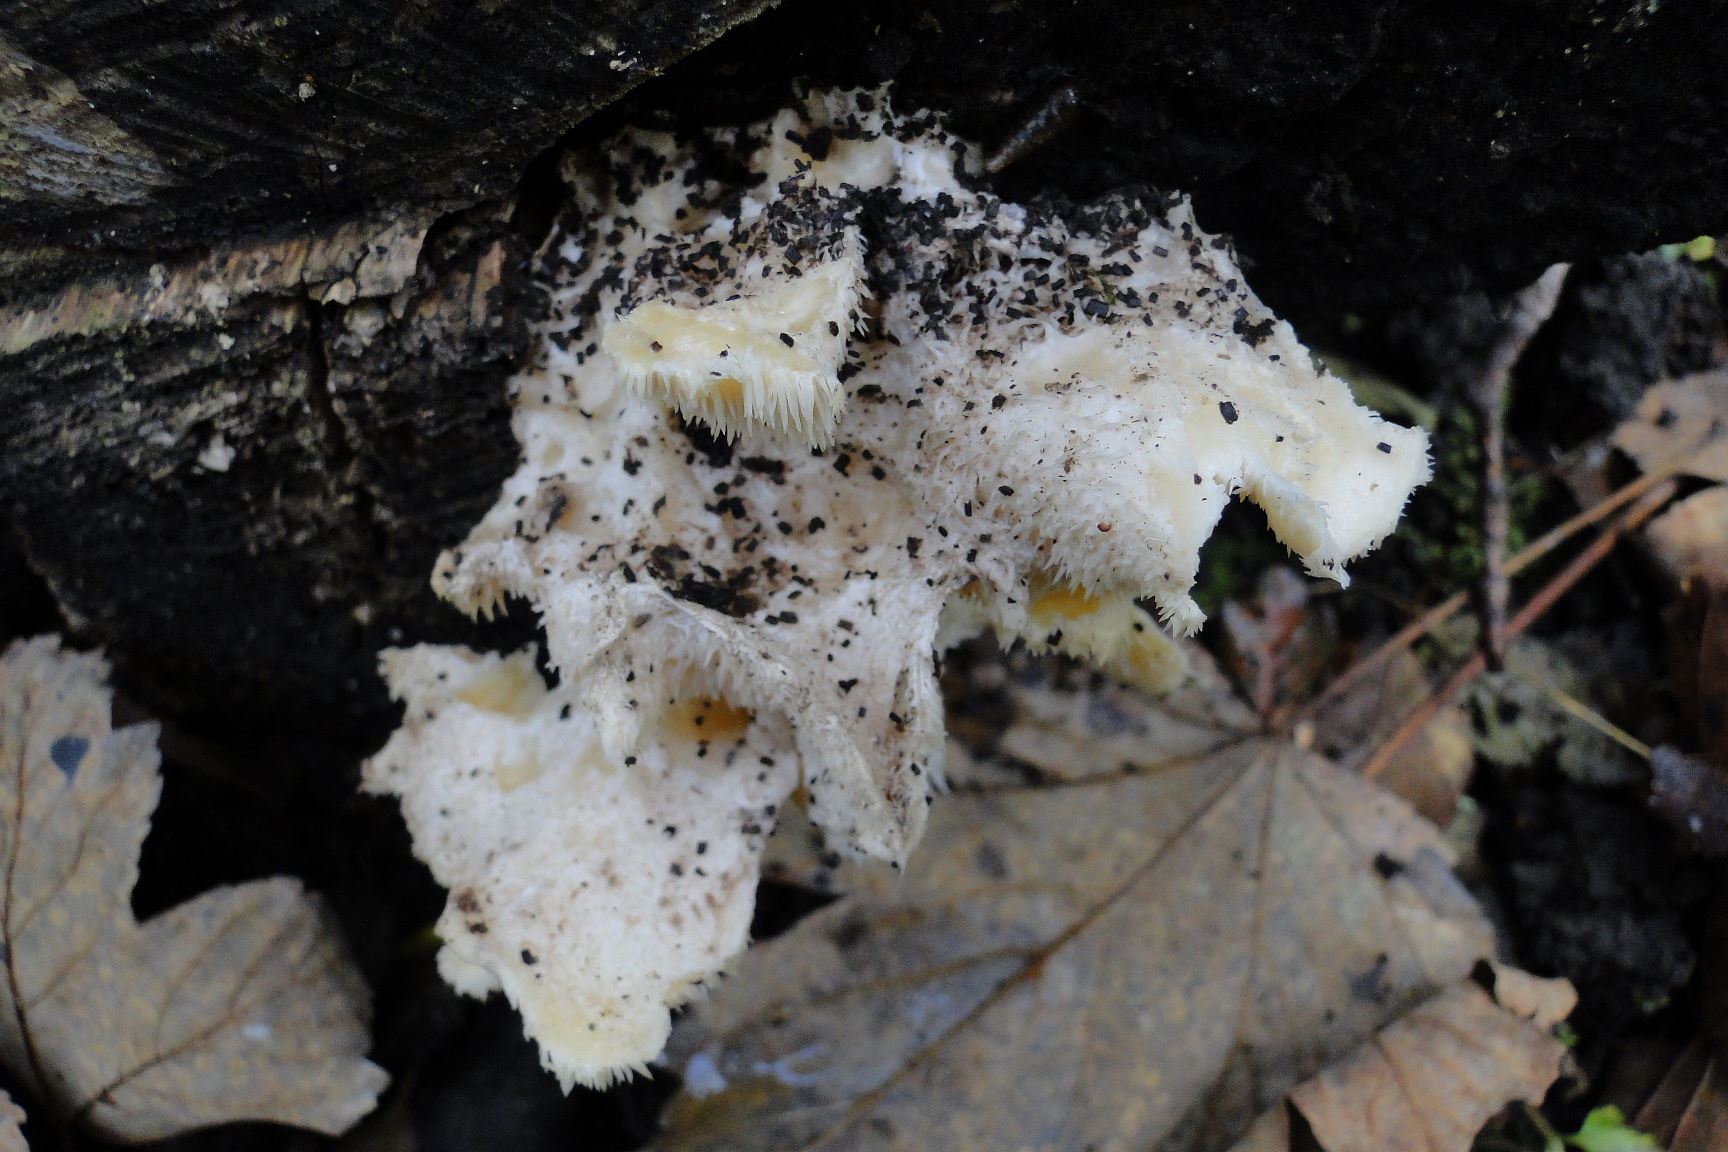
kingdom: Fungi
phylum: Basidiomycota
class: Agaricomycetes
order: Russulales
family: Hericiaceae
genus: Hericium
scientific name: Hericium cirrhatum
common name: børstepigsvamp
